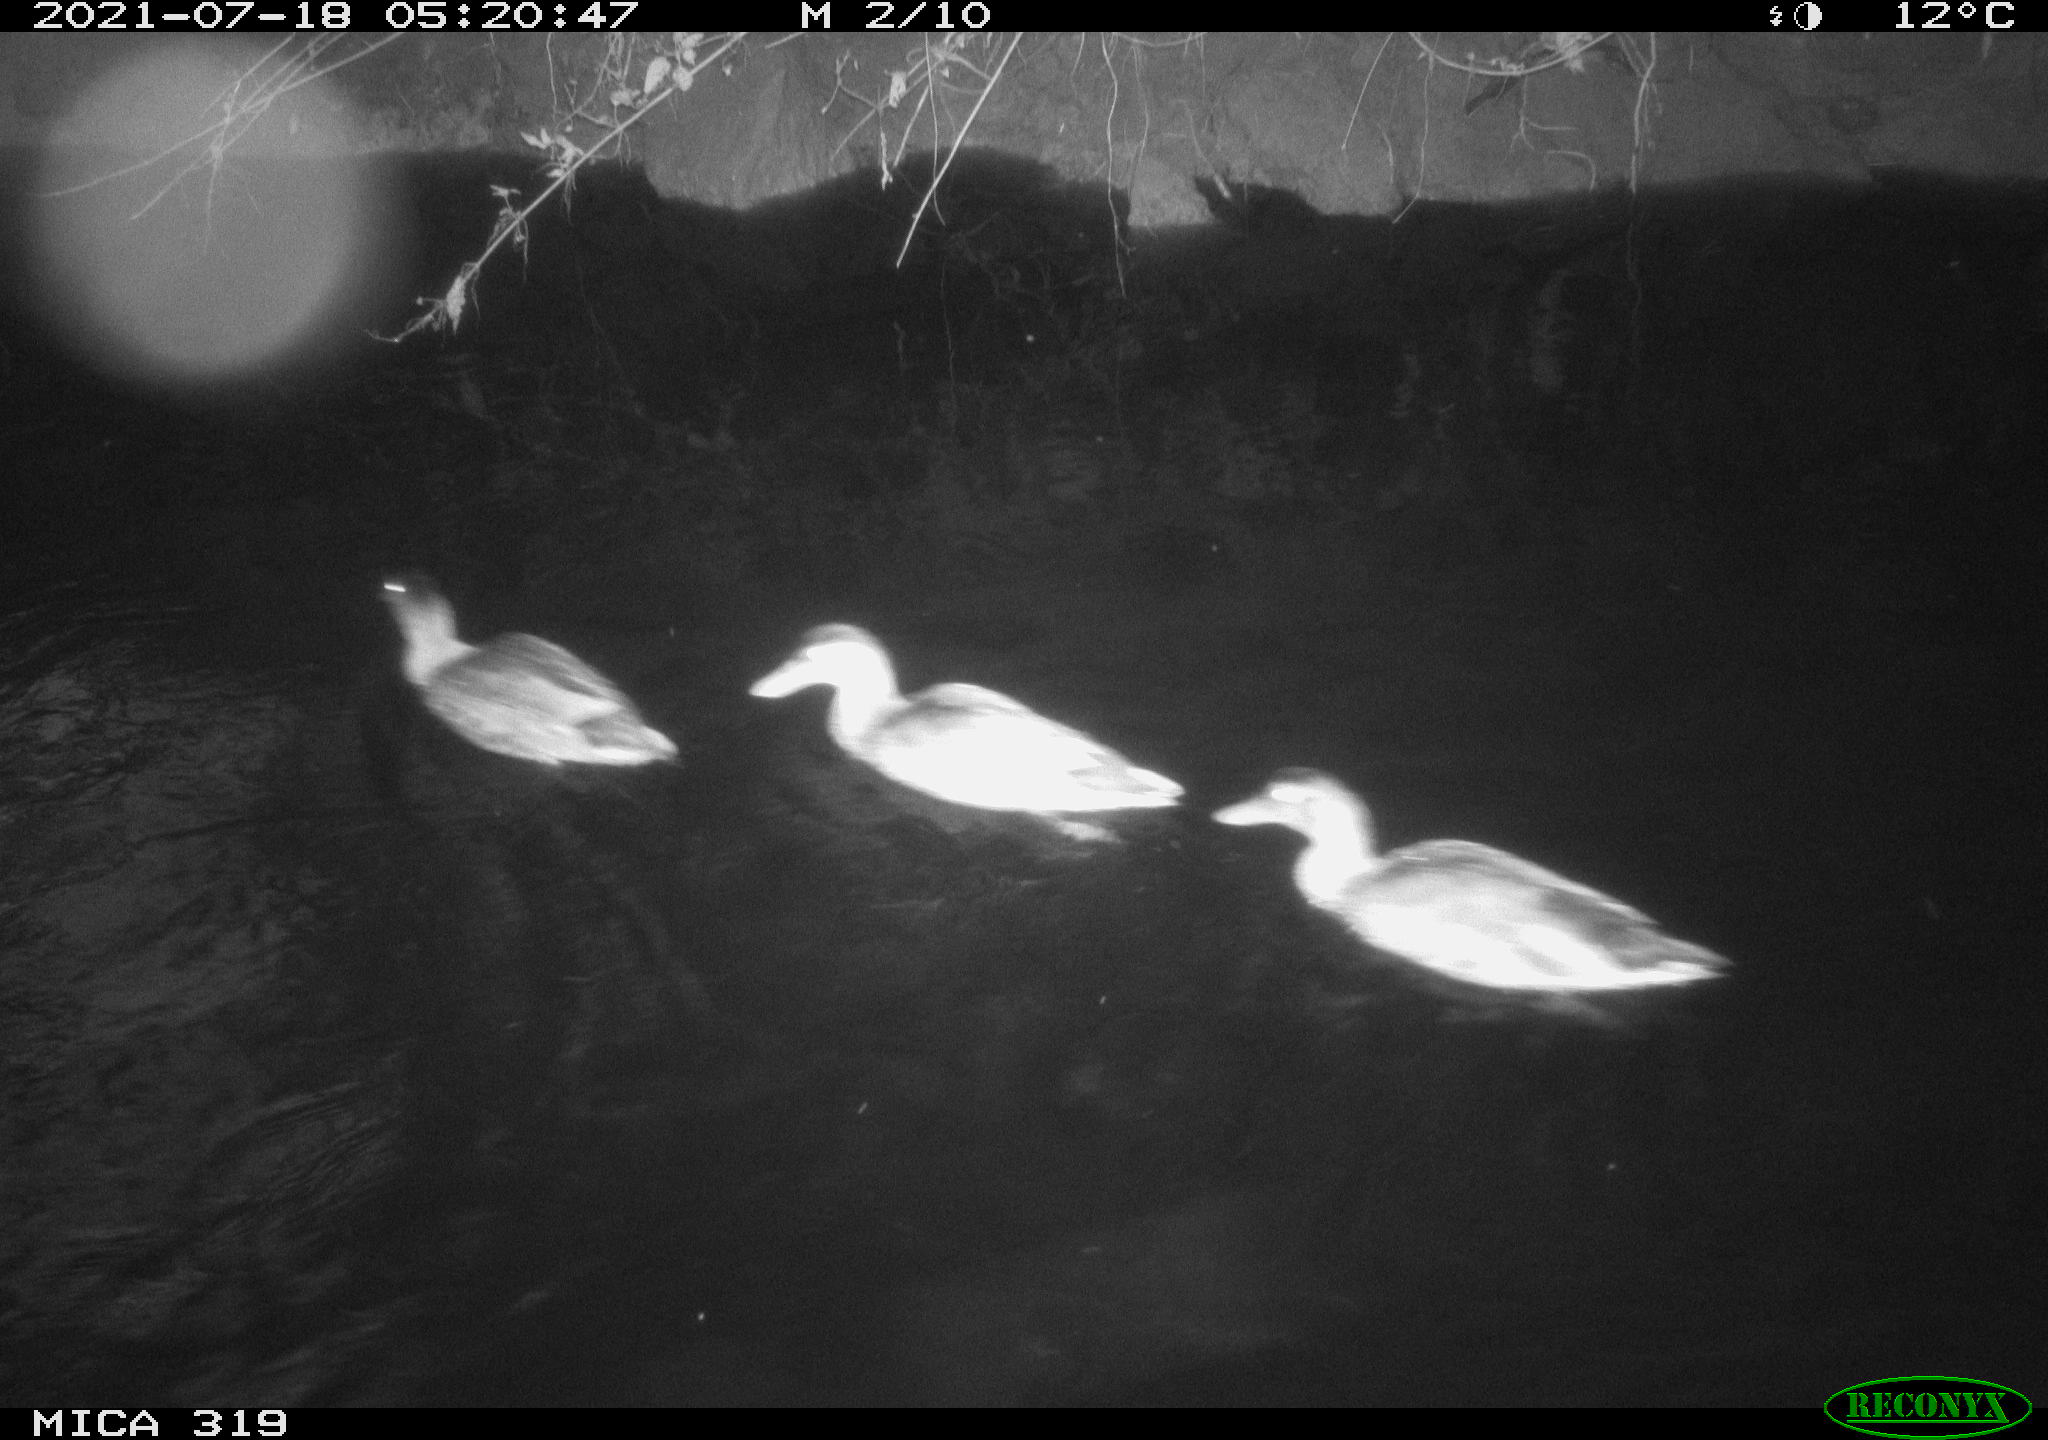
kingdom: Animalia
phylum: Chordata
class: Aves
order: Anseriformes
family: Anatidae
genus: Anas
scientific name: Anas platyrhynchos
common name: Mallard
